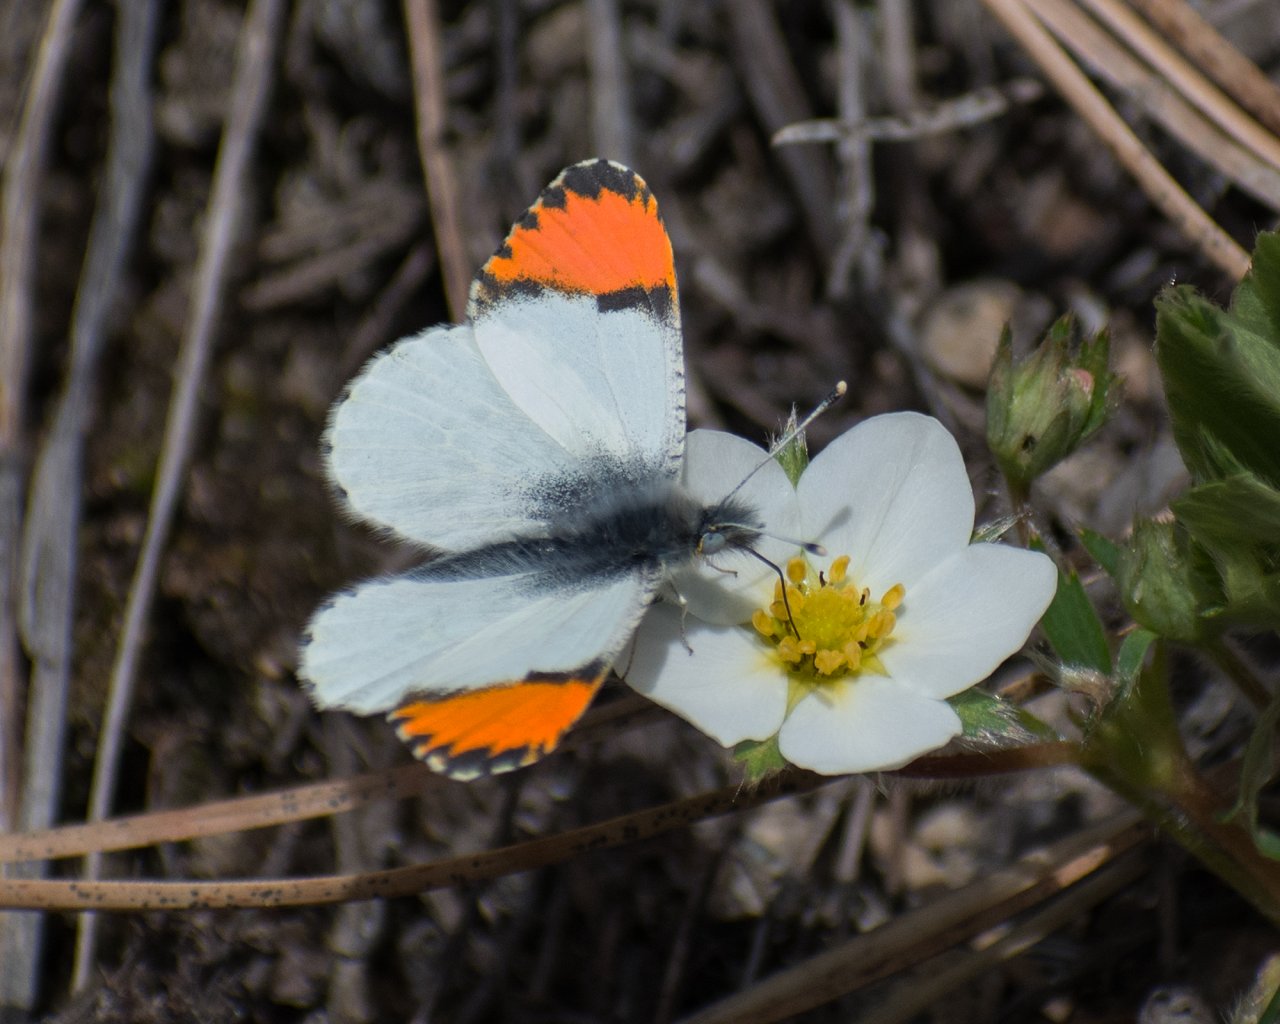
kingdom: Animalia
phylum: Arthropoda
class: Insecta
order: Lepidoptera
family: Pieridae
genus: Anthocharis
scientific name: Anthocharis sara
